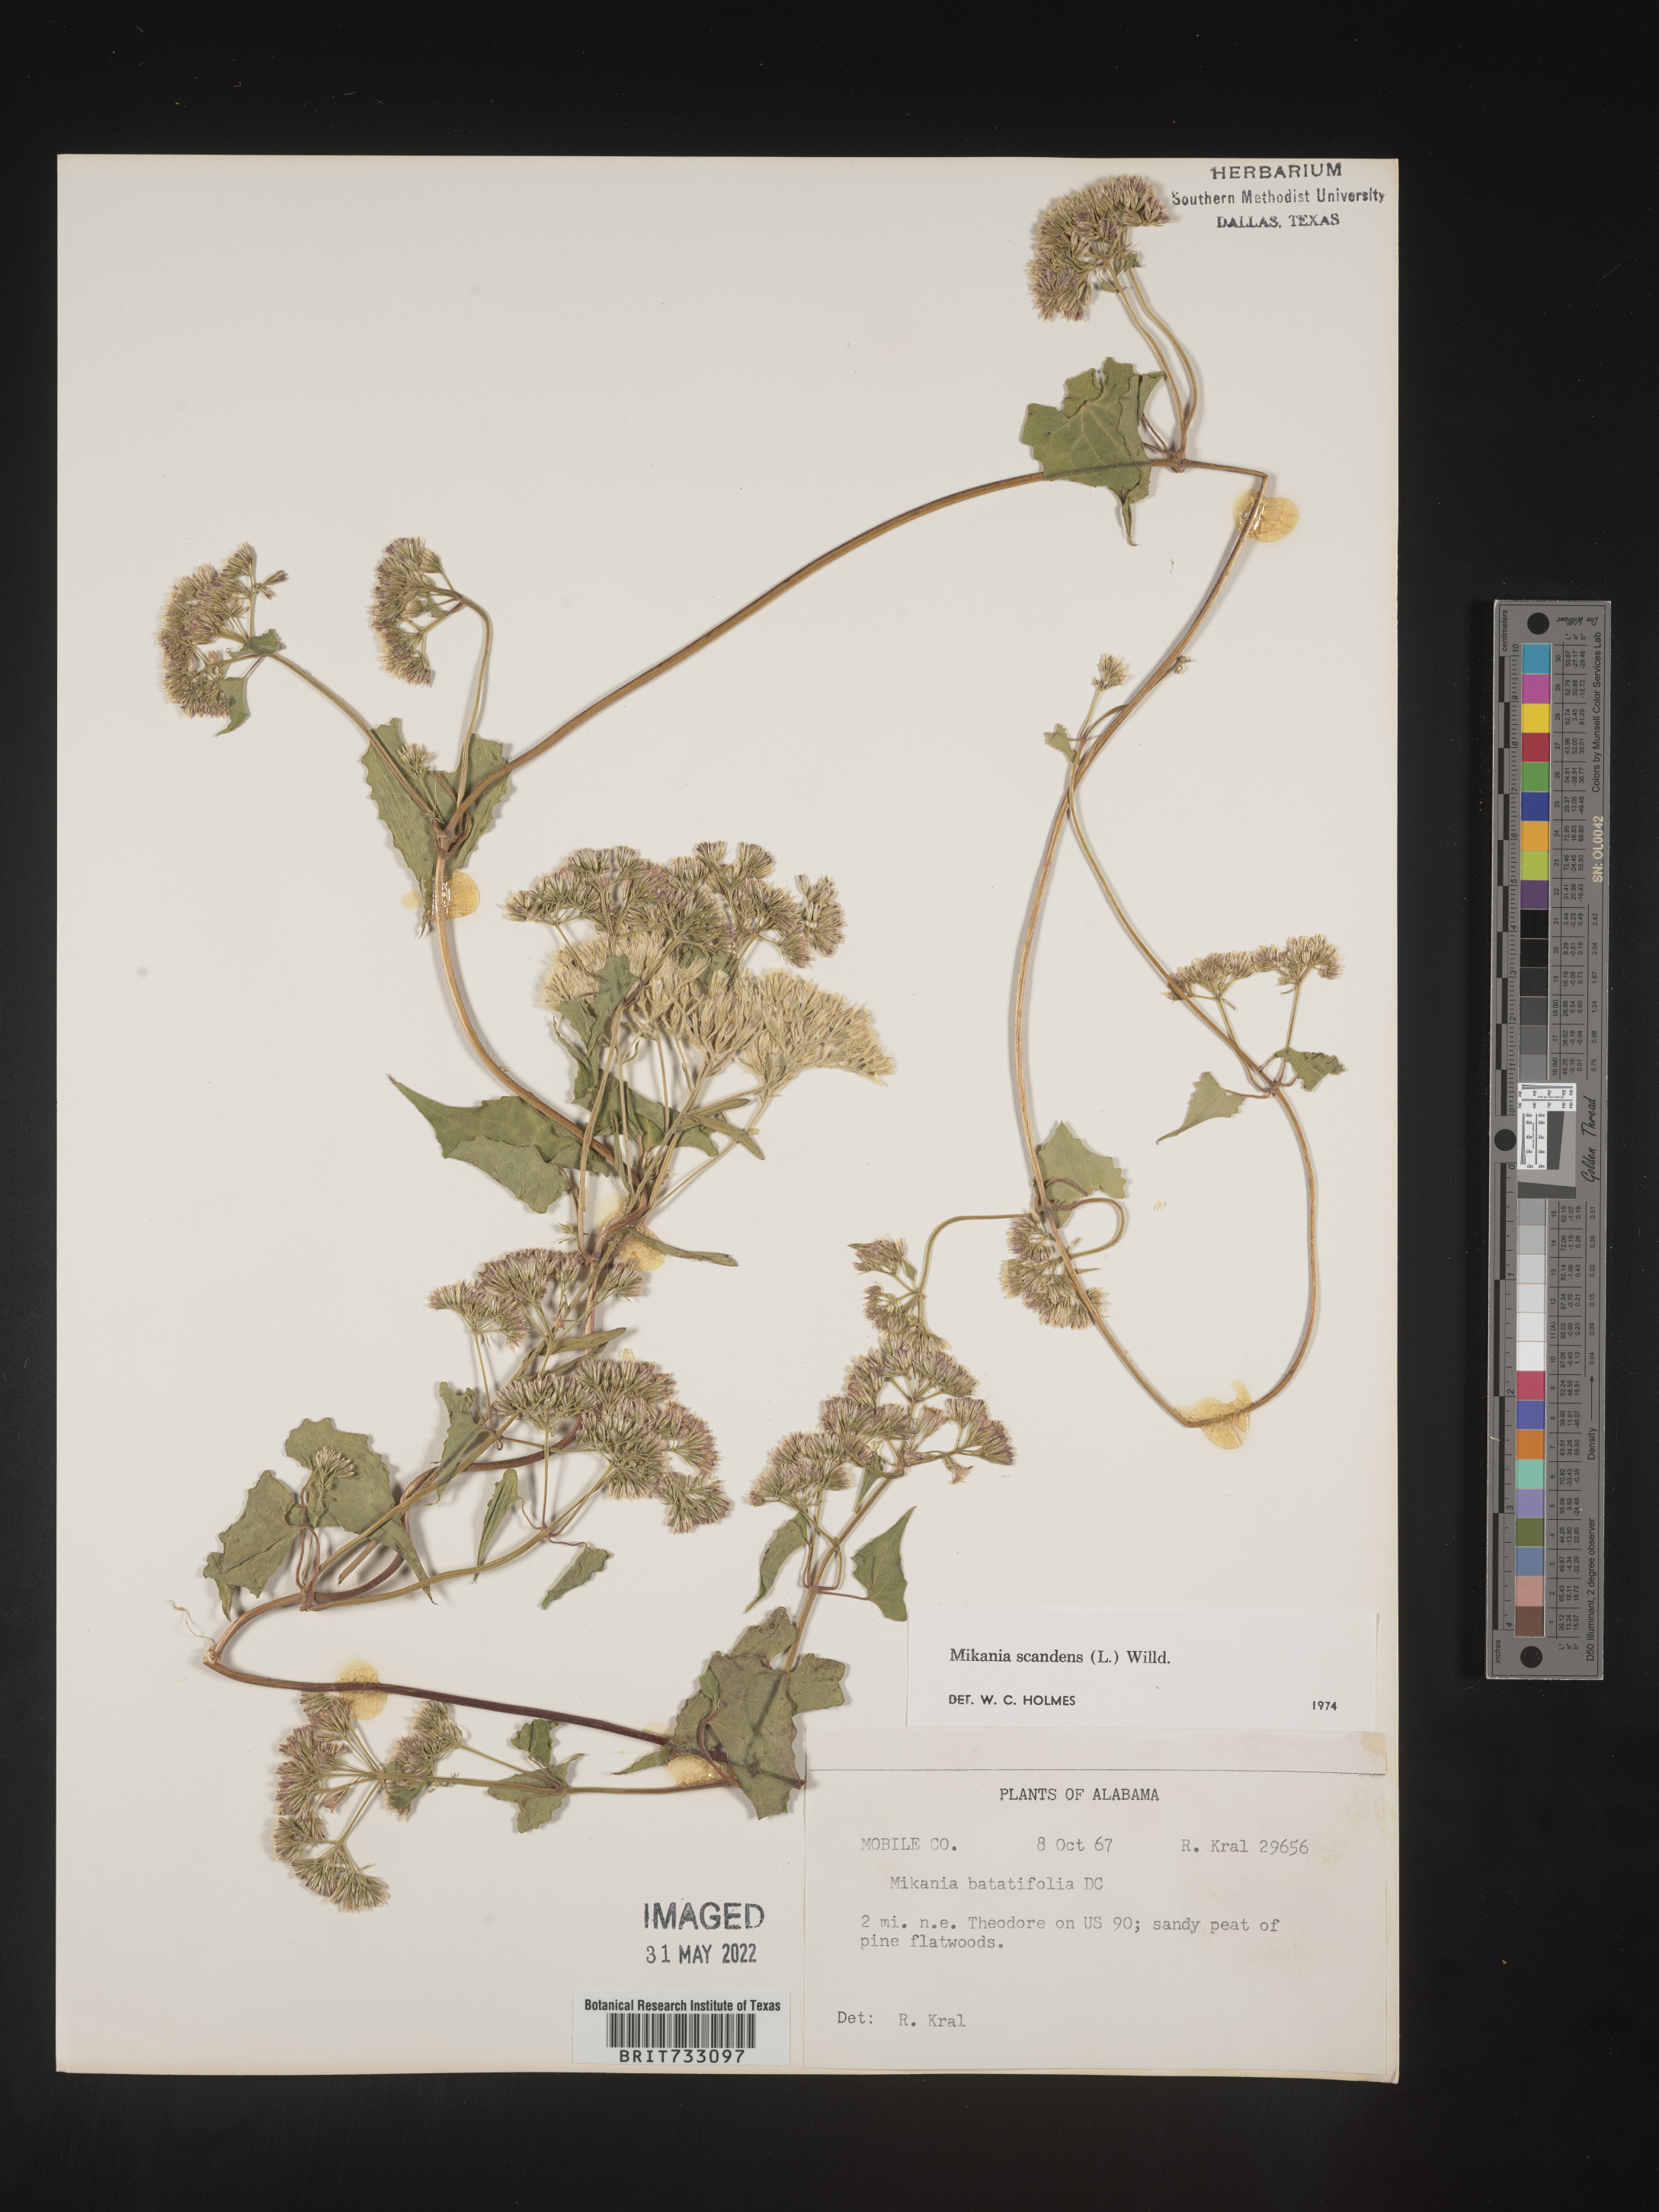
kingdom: Plantae
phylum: Tracheophyta
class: Magnoliopsida
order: Asterales
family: Asteraceae
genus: Mikania
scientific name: Mikania scandens
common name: Climbing hempvine
